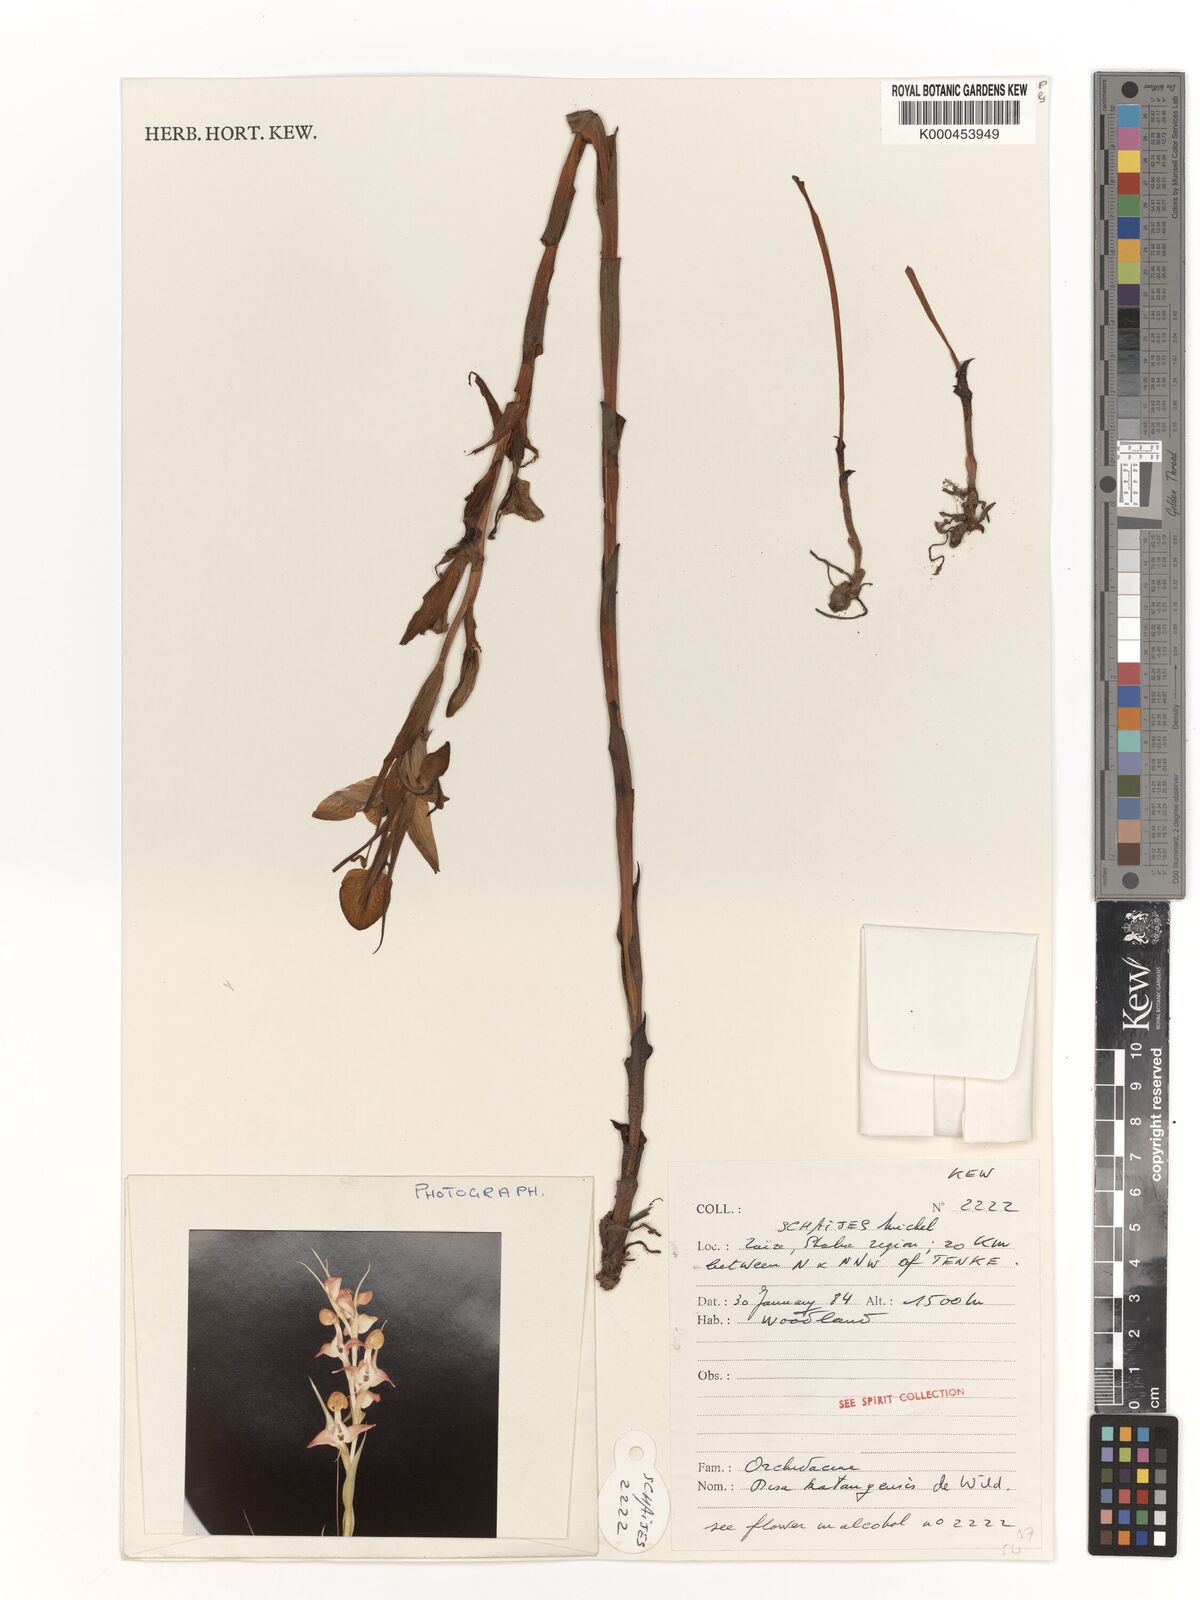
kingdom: Plantae
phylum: Tracheophyta
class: Liliopsida
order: Asparagales
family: Orchidaceae
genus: Disa
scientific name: Disa katangensis
